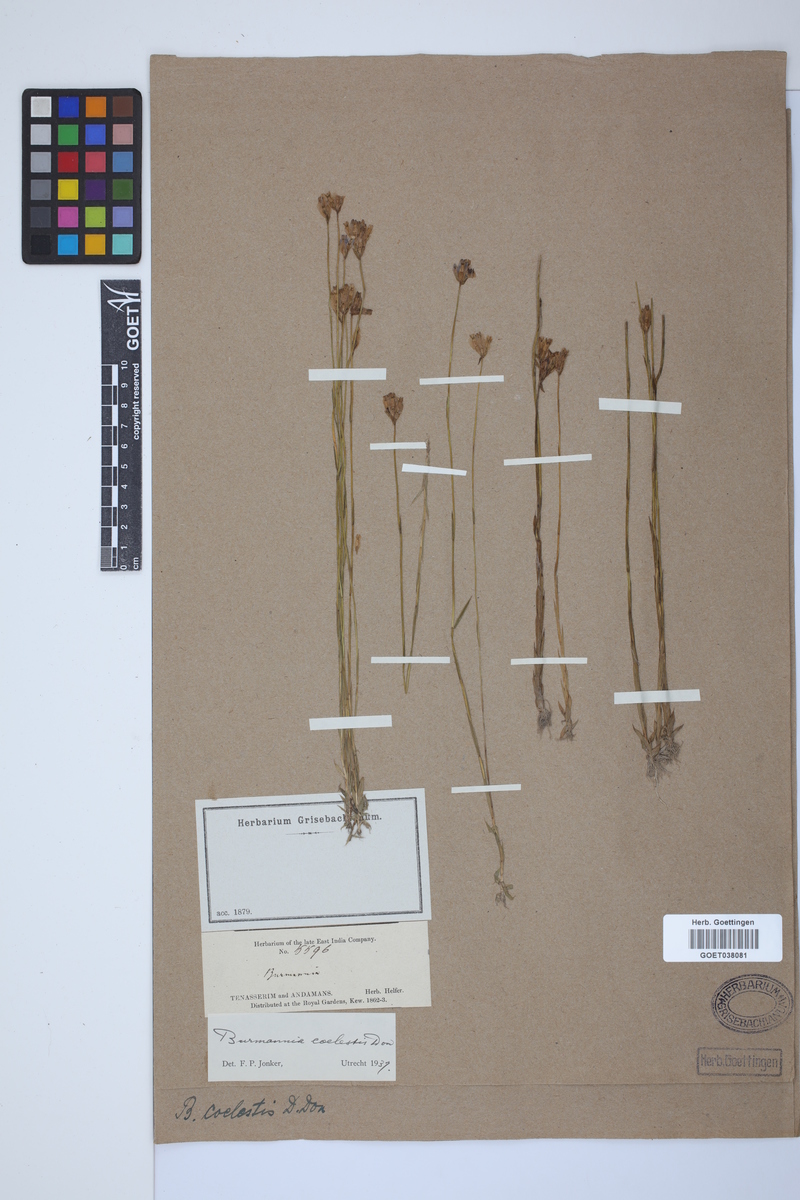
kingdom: Plantae
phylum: Tracheophyta
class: Liliopsida
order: Dioscoreales
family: Burmanniaceae
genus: Burmannia
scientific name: Burmannia coelestis
